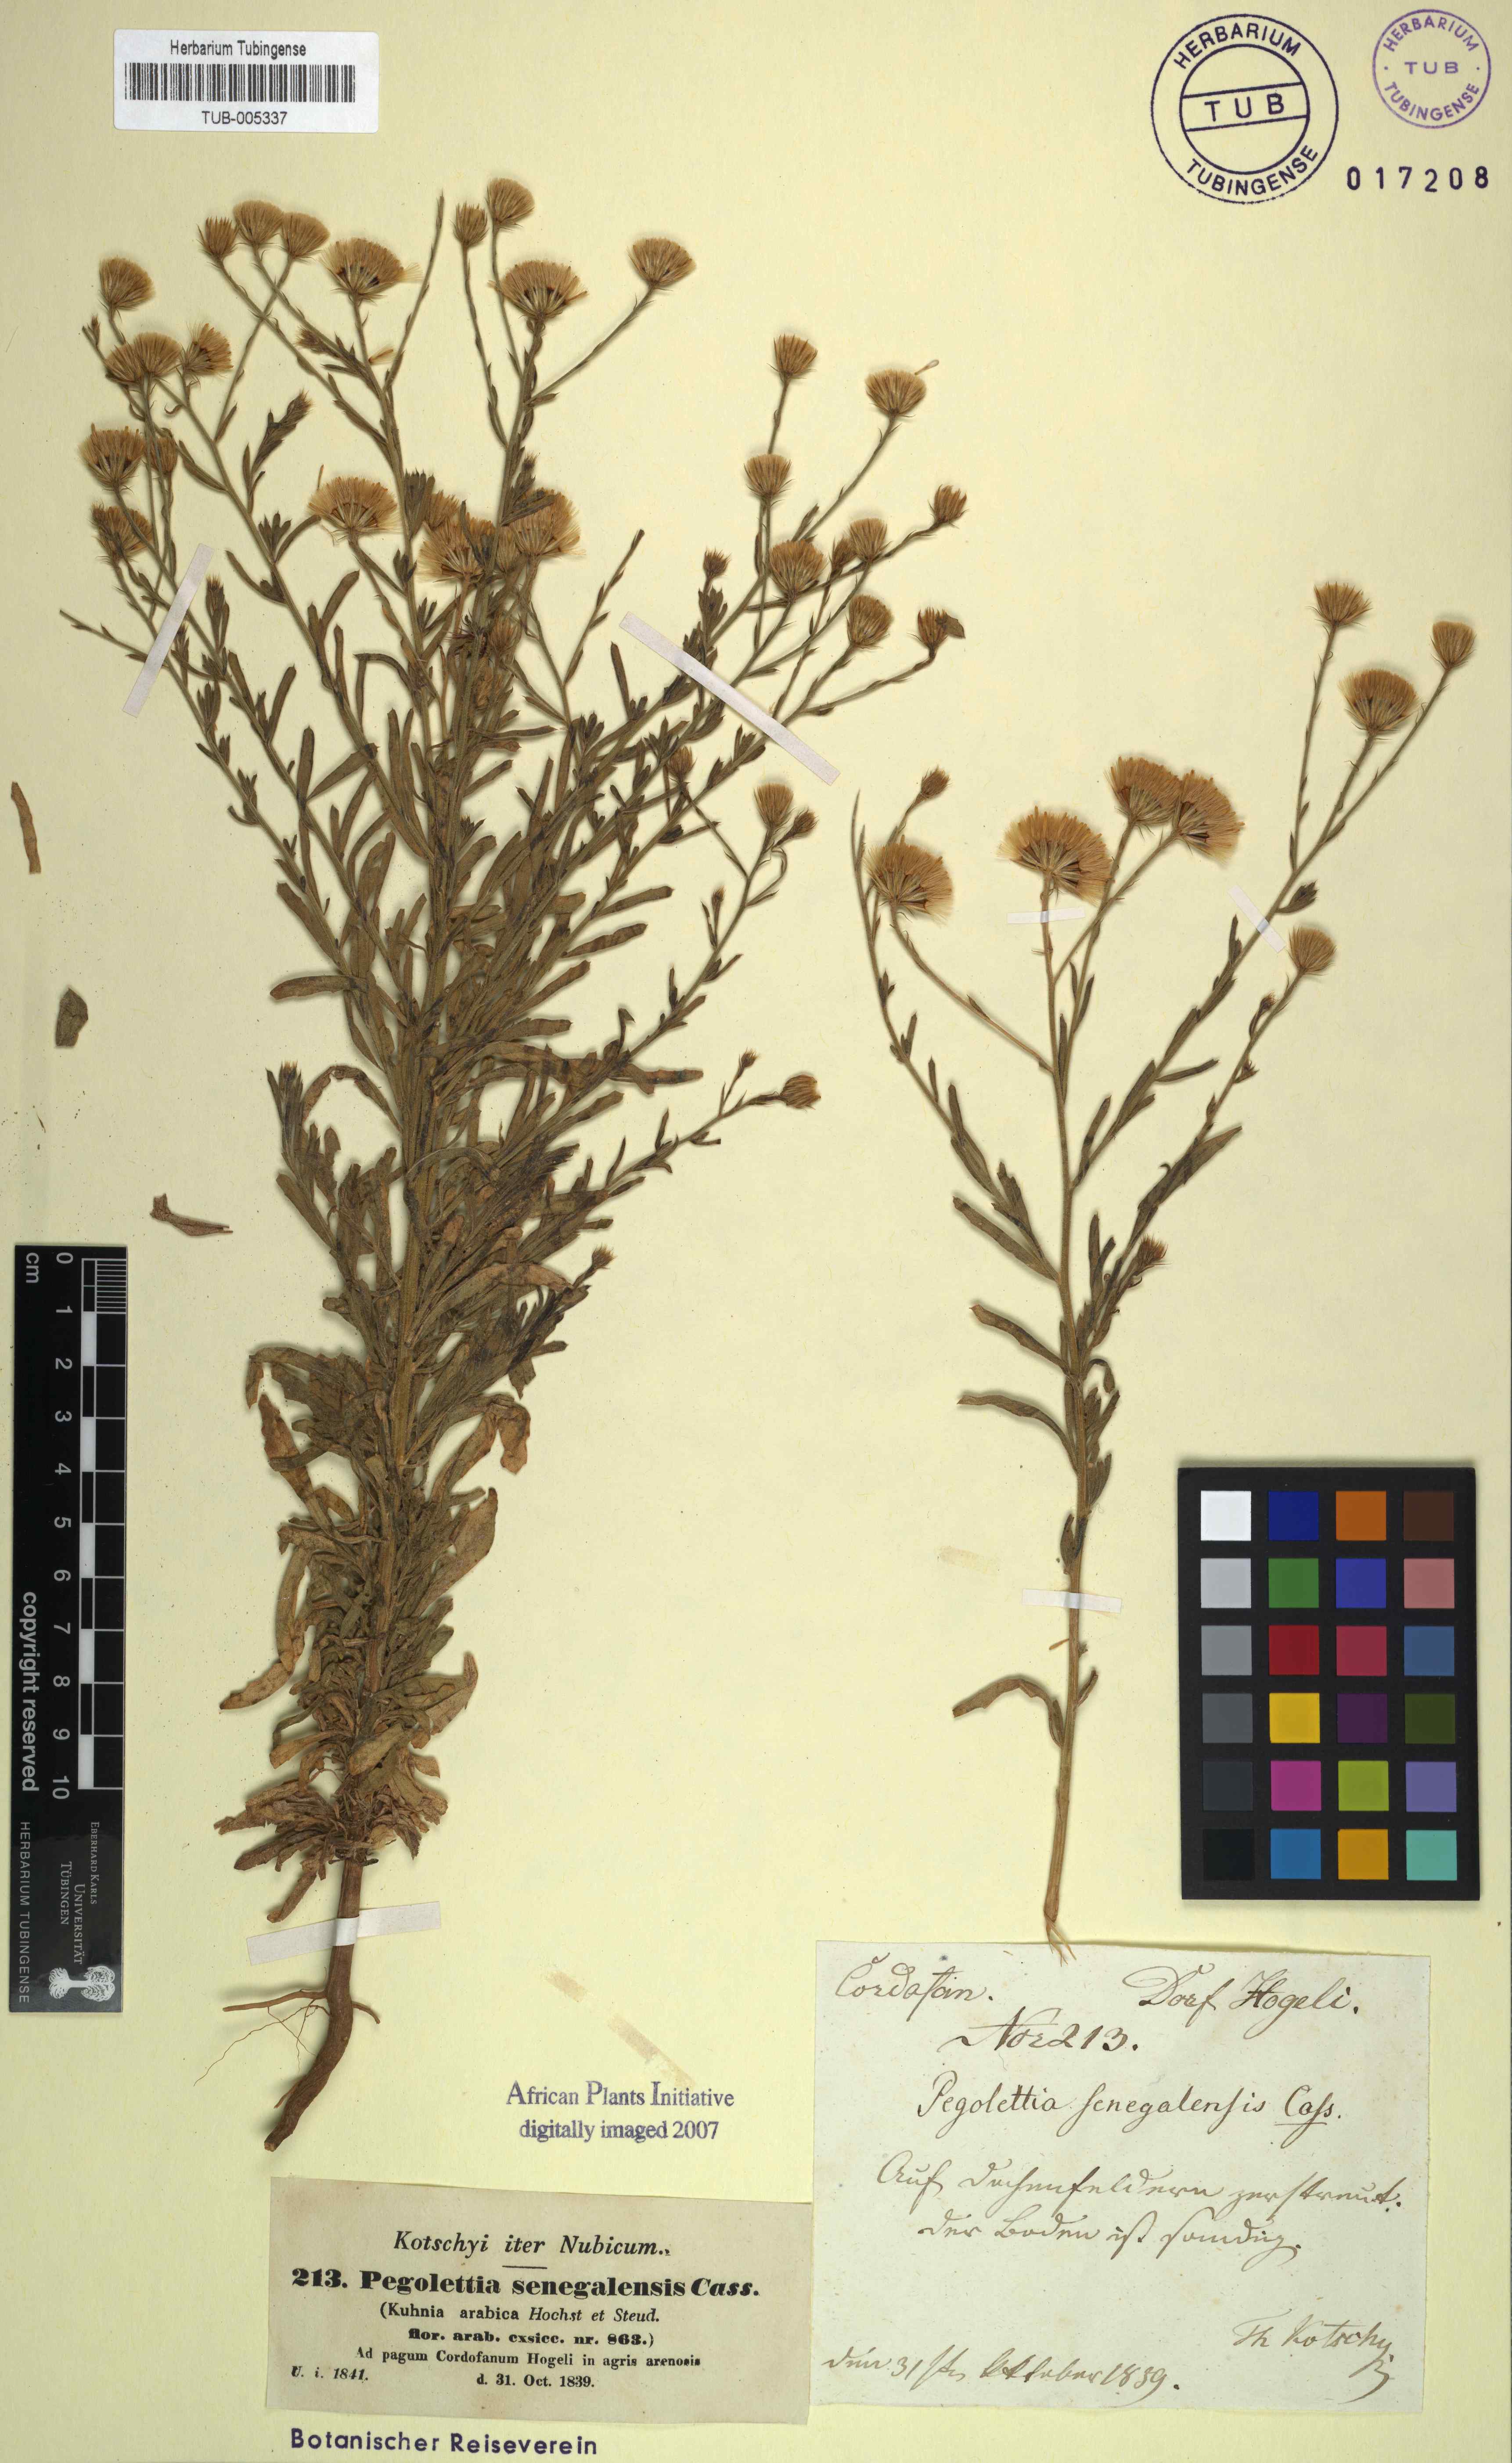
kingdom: Plantae
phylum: Tracheophyta
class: Magnoliopsida
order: Asterales
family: Asteraceae
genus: Pegolettia
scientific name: Pegolettia senegalensis
